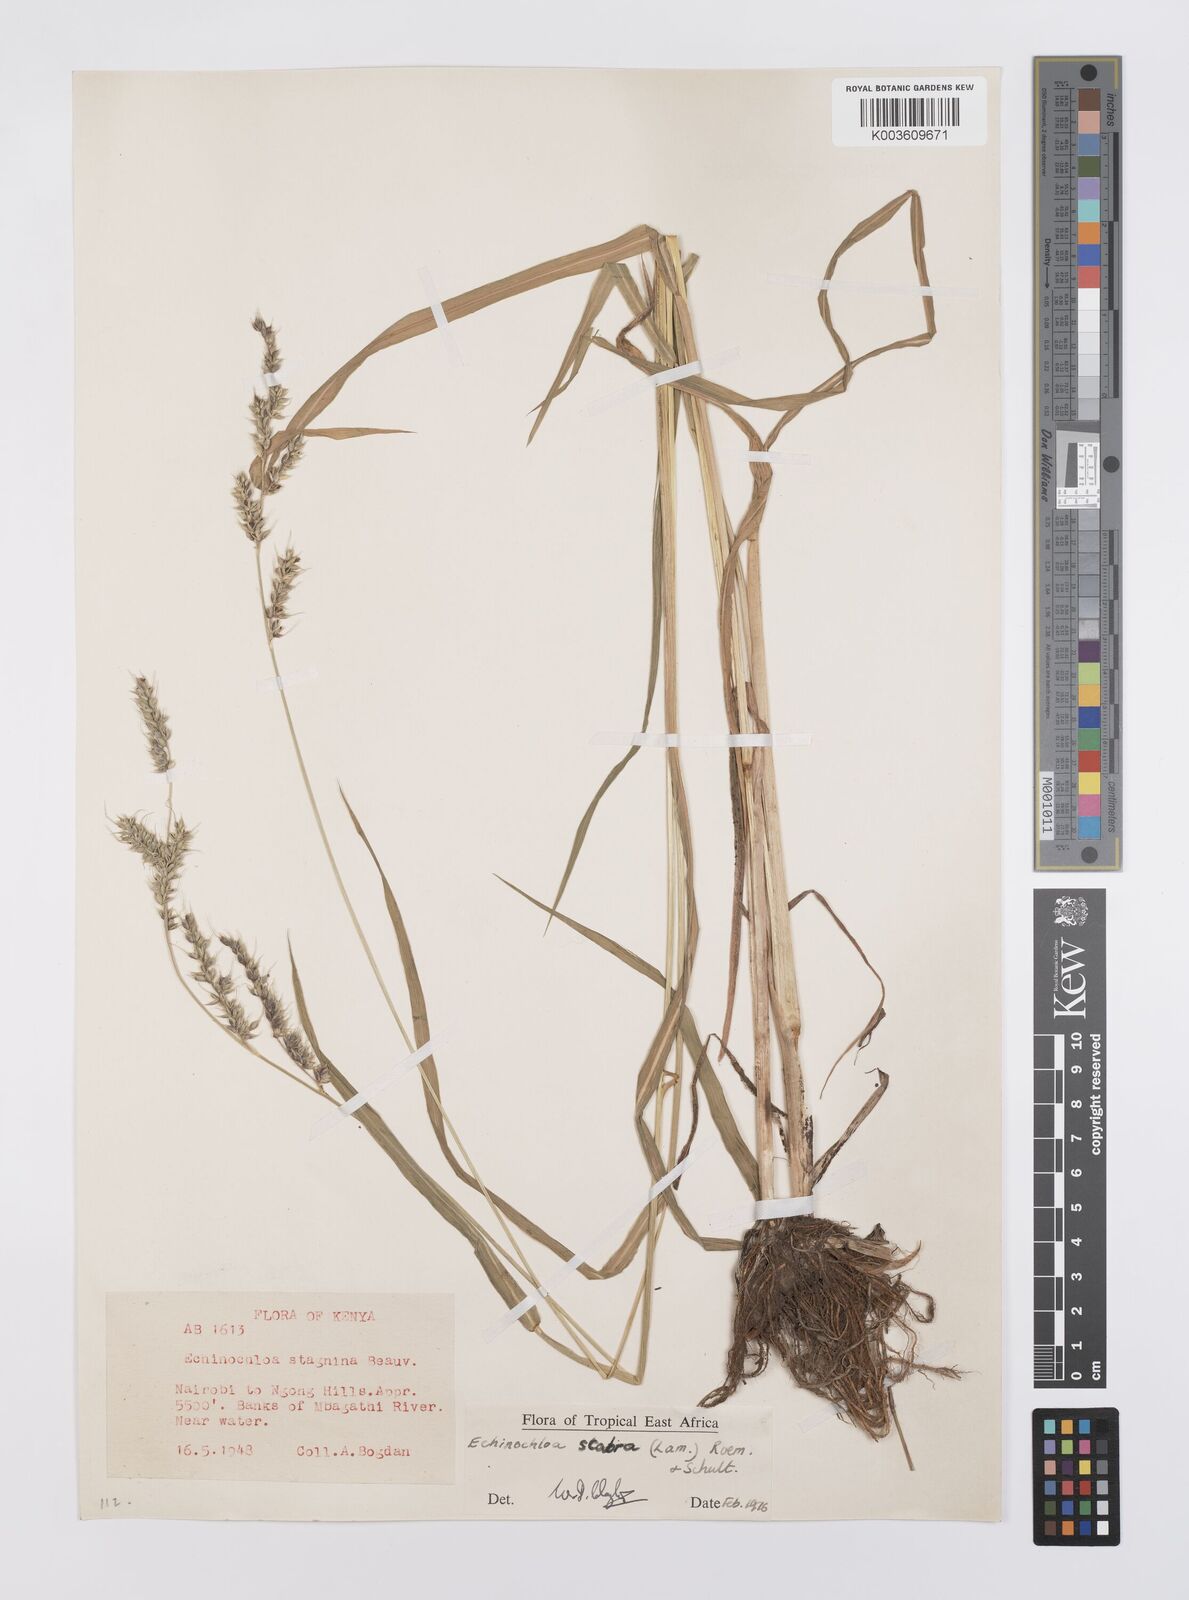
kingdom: Plantae
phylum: Tracheophyta
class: Liliopsida
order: Poales
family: Poaceae
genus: Echinochloa
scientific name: Echinochloa stagnina
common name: Burgu grass
